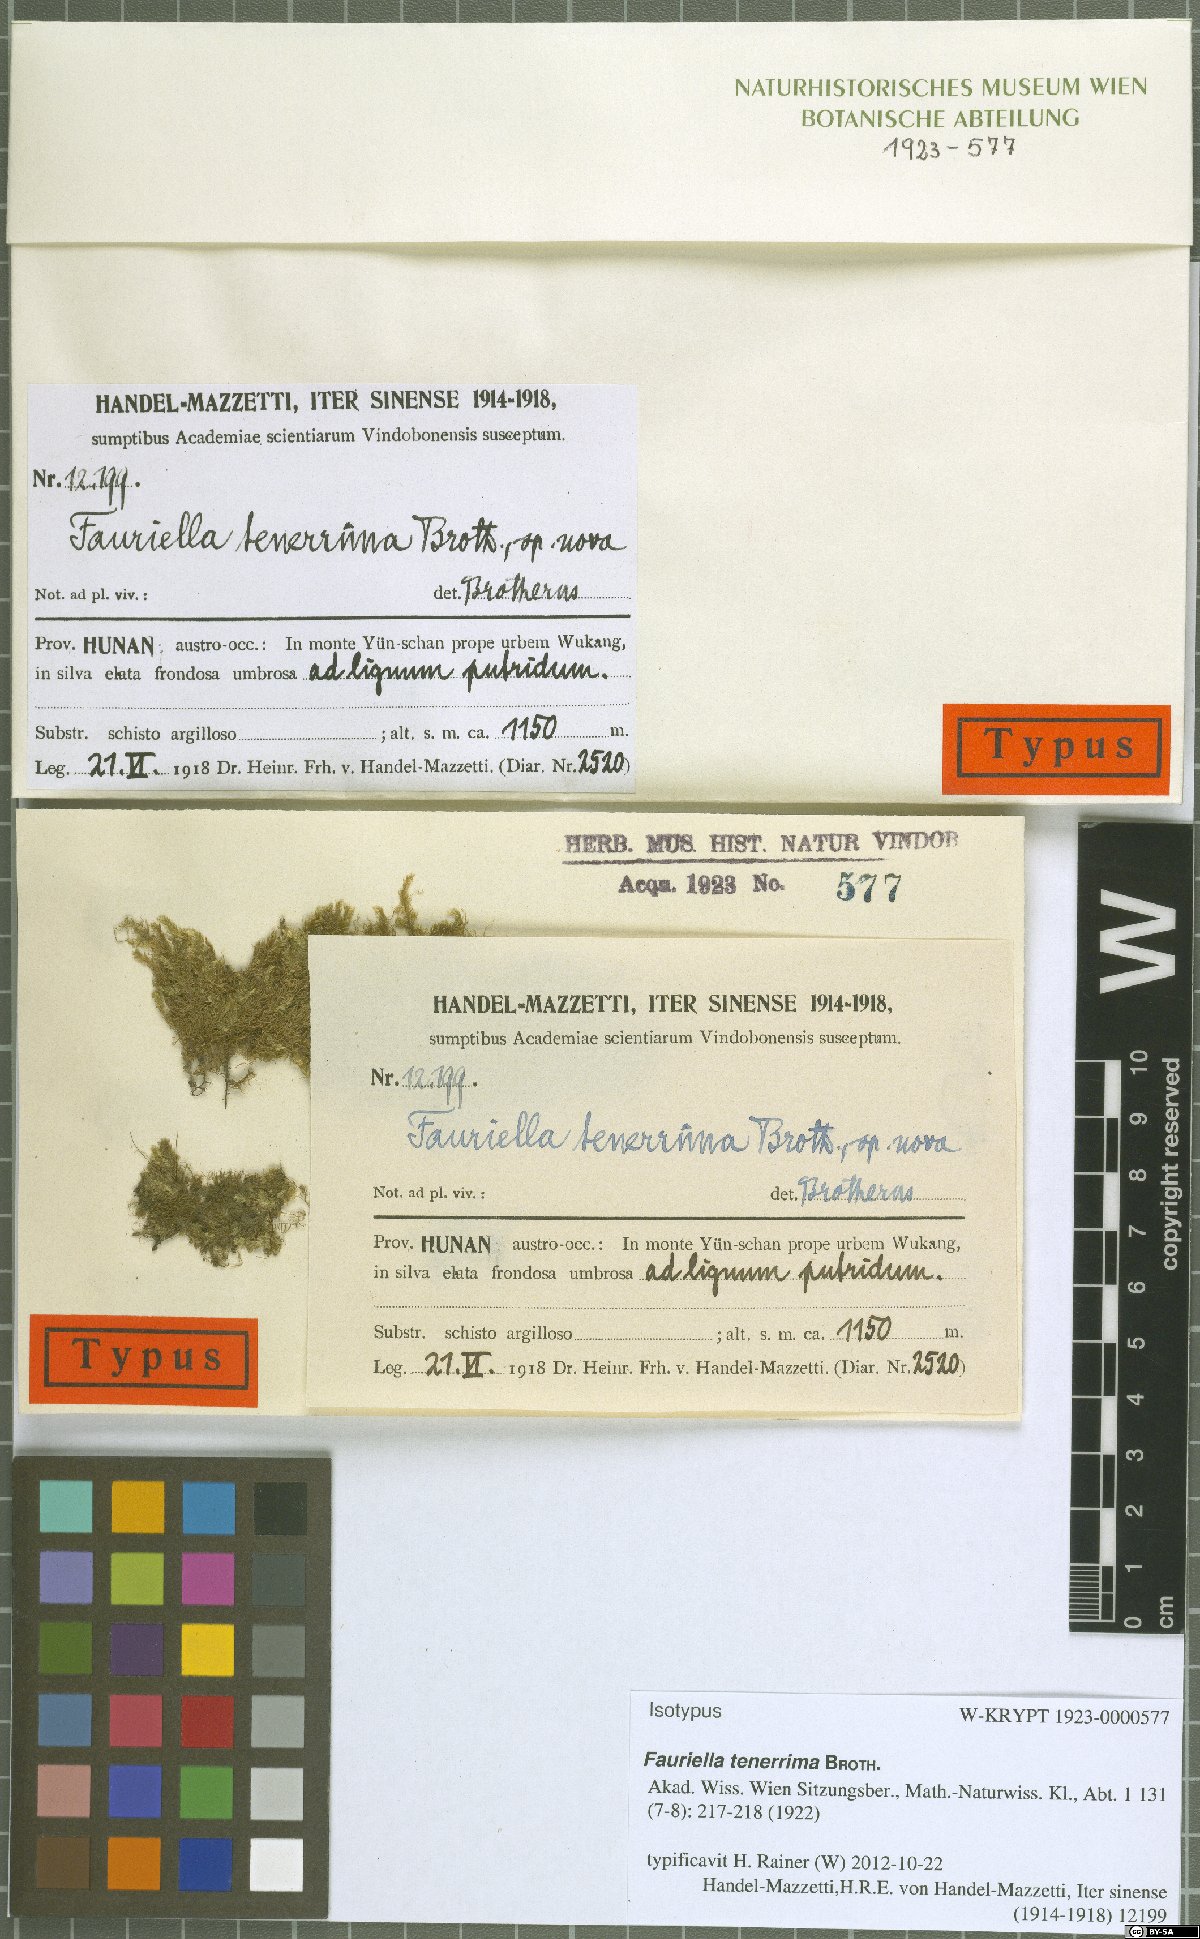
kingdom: Plantae
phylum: Bryophyta
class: Bryopsida
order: Hypnales
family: Thuidiaceae
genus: Fauriella
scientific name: Fauriella tenerrima
